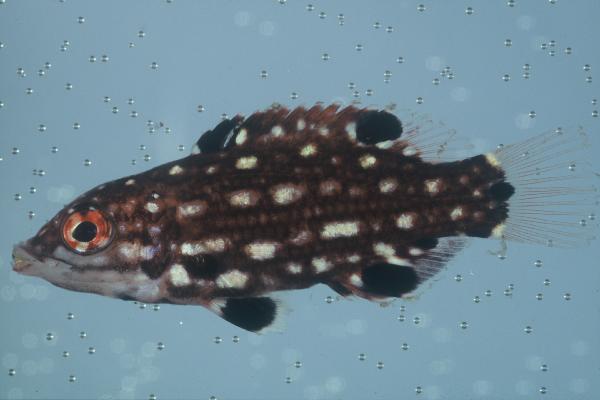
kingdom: Animalia
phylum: Chordata
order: Perciformes
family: Labridae
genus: Bodianus
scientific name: Bodianus diana
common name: Diana's hogfish
